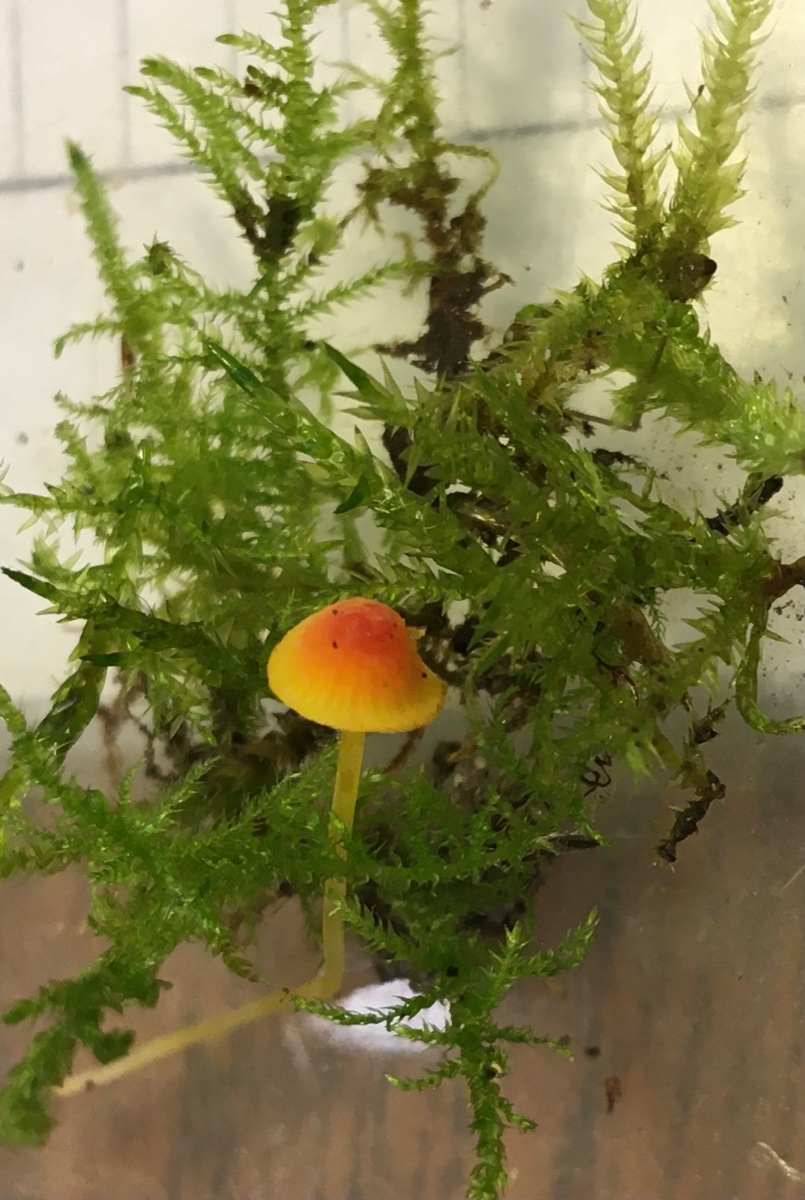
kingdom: Fungi
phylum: Basidiomycota
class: Agaricomycetes
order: Agaricales
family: Mycenaceae
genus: Mycena
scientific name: Mycena acicula
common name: orange huesvamp
